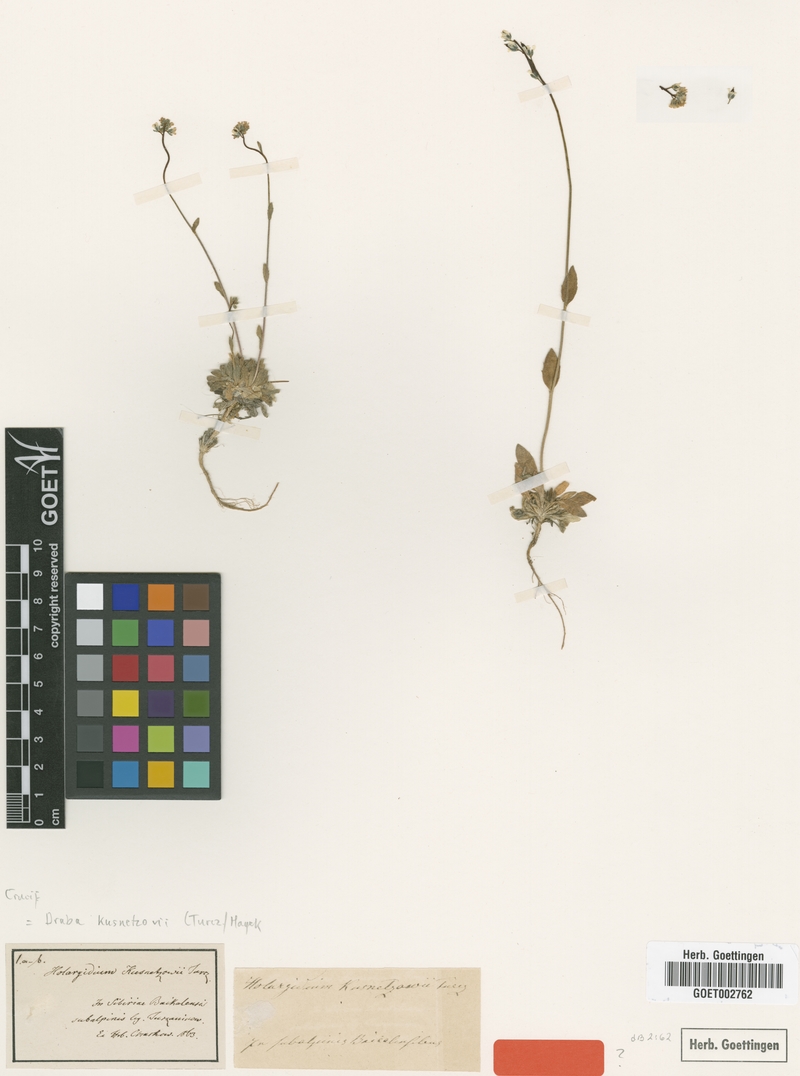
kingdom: Plantae
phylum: Tracheophyta
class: Magnoliopsida
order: Brassicales
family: Brassicaceae
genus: Draba
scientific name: Draba kusnetzowii
